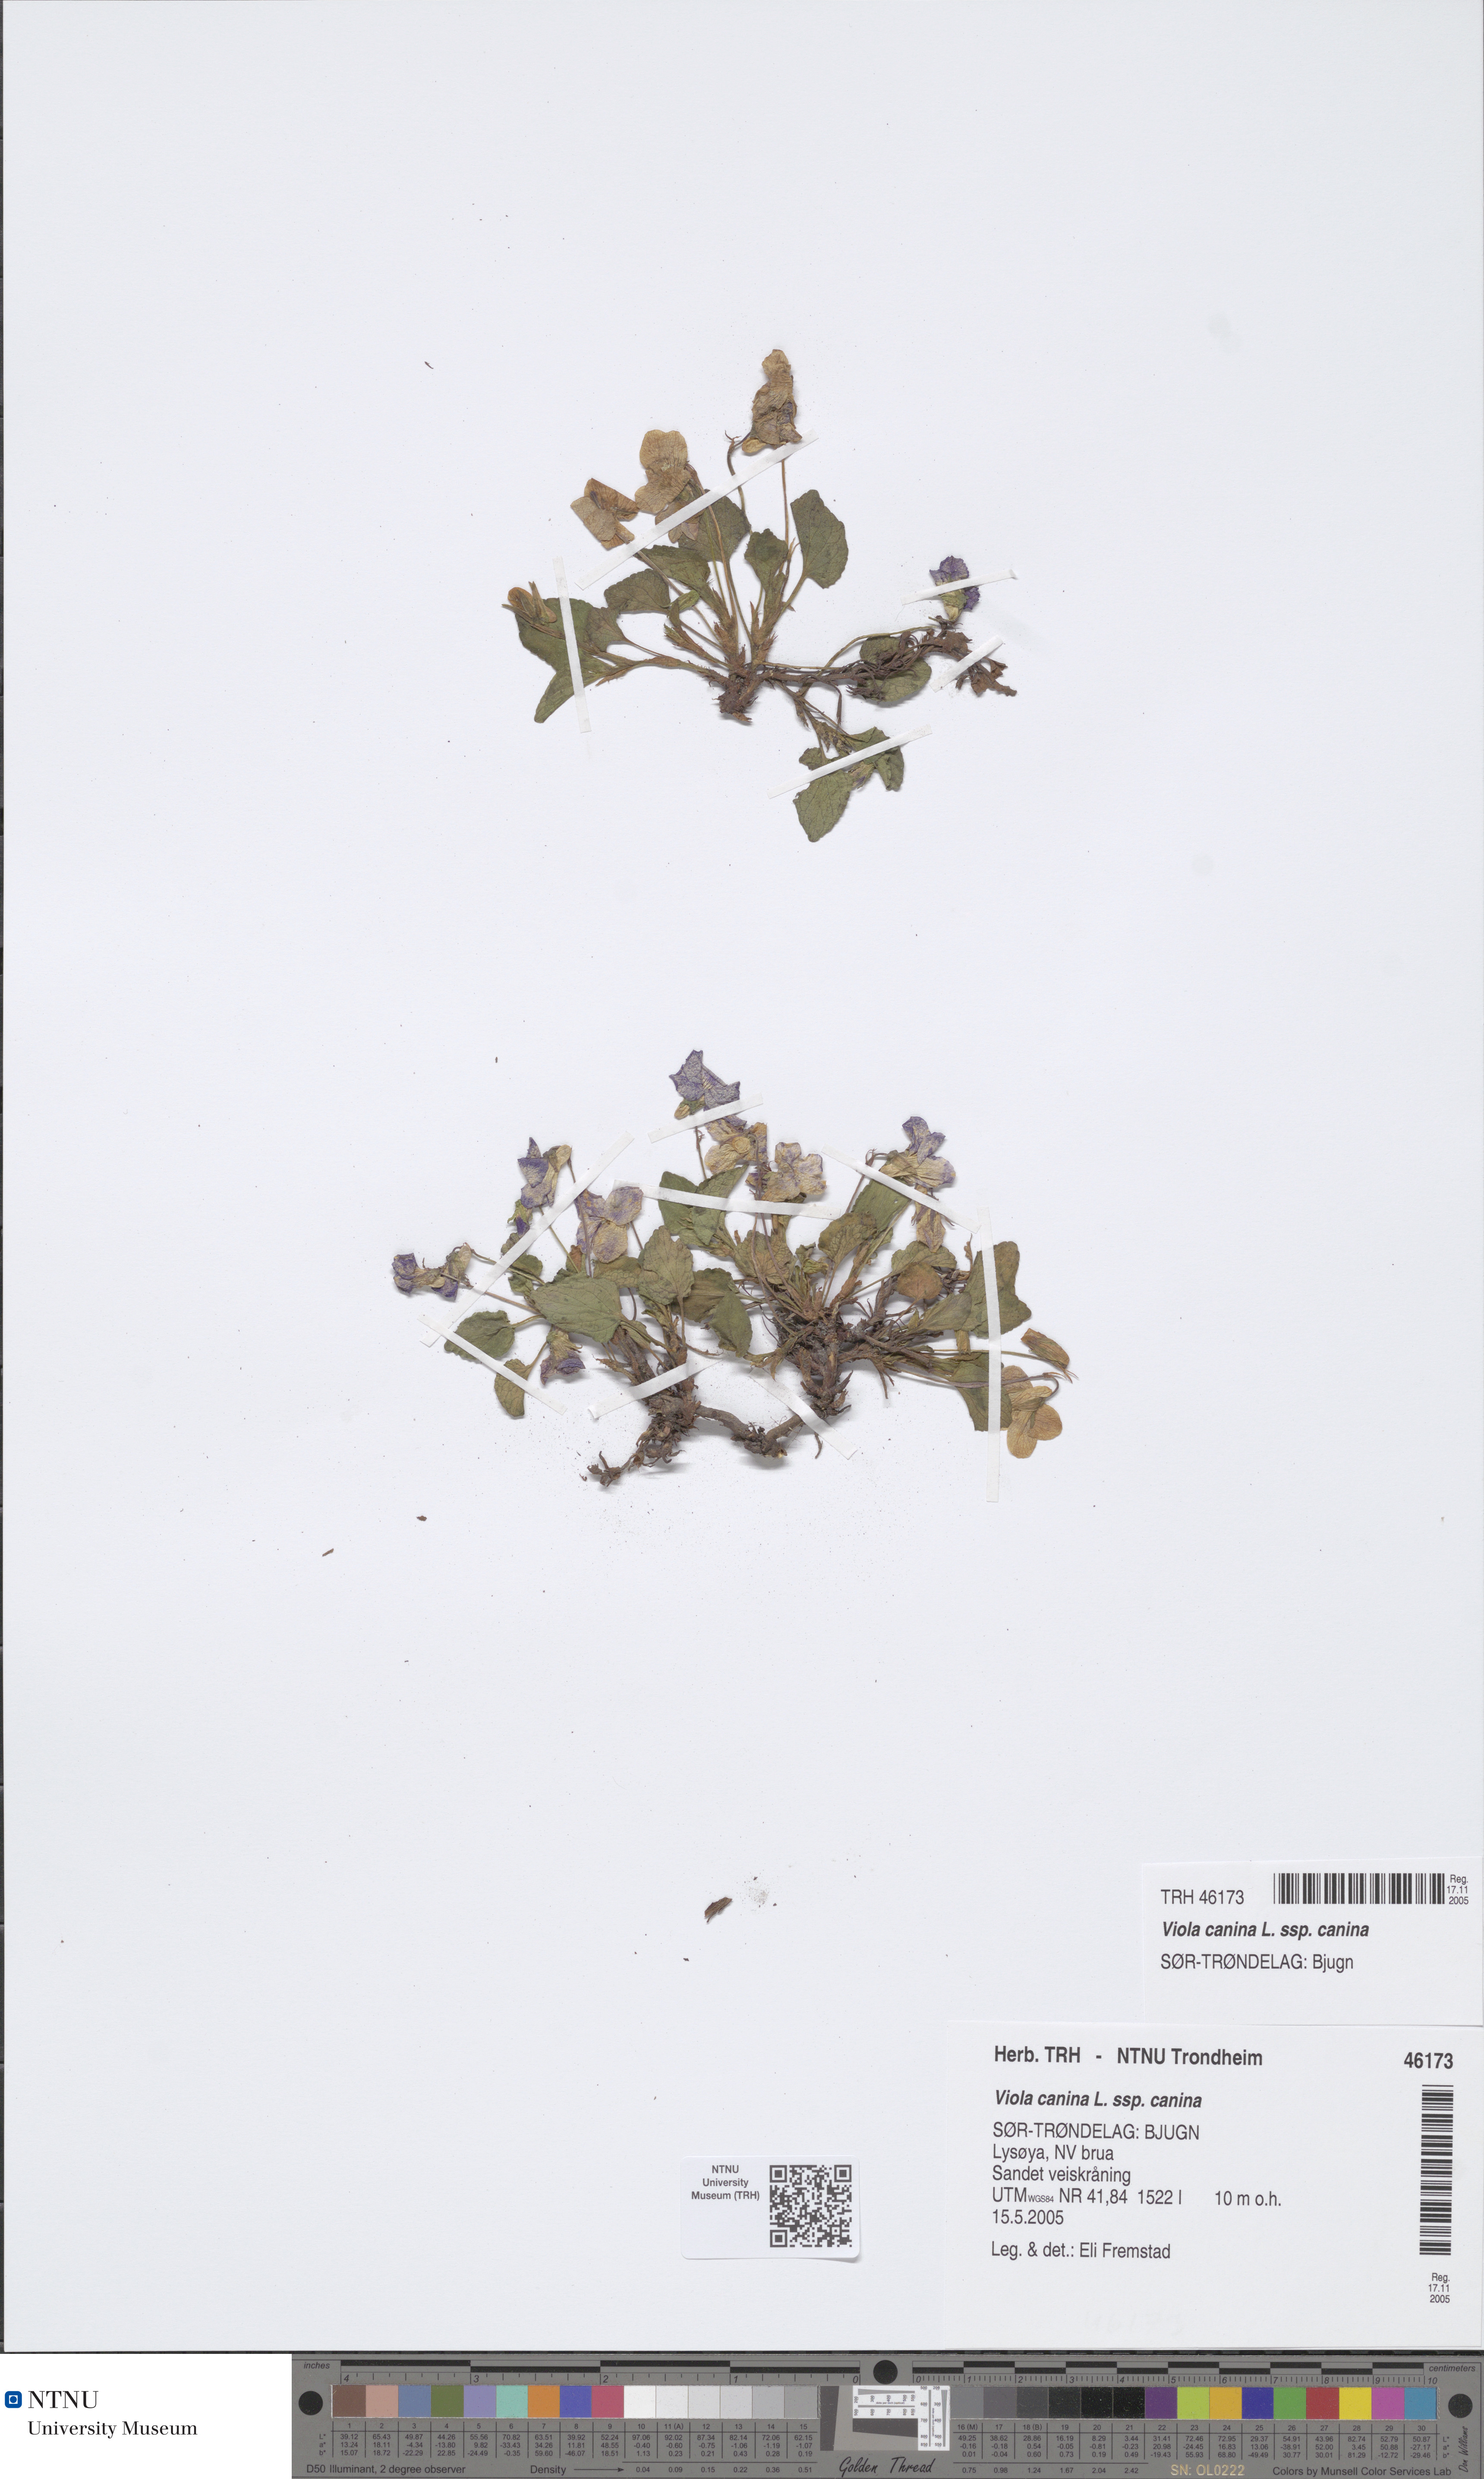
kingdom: Plantae
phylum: Tracheophyta
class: Magnoliopsida
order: Malpighiales
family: Violaceae
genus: Viola
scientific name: Viola canina
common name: Heath dog-violet
